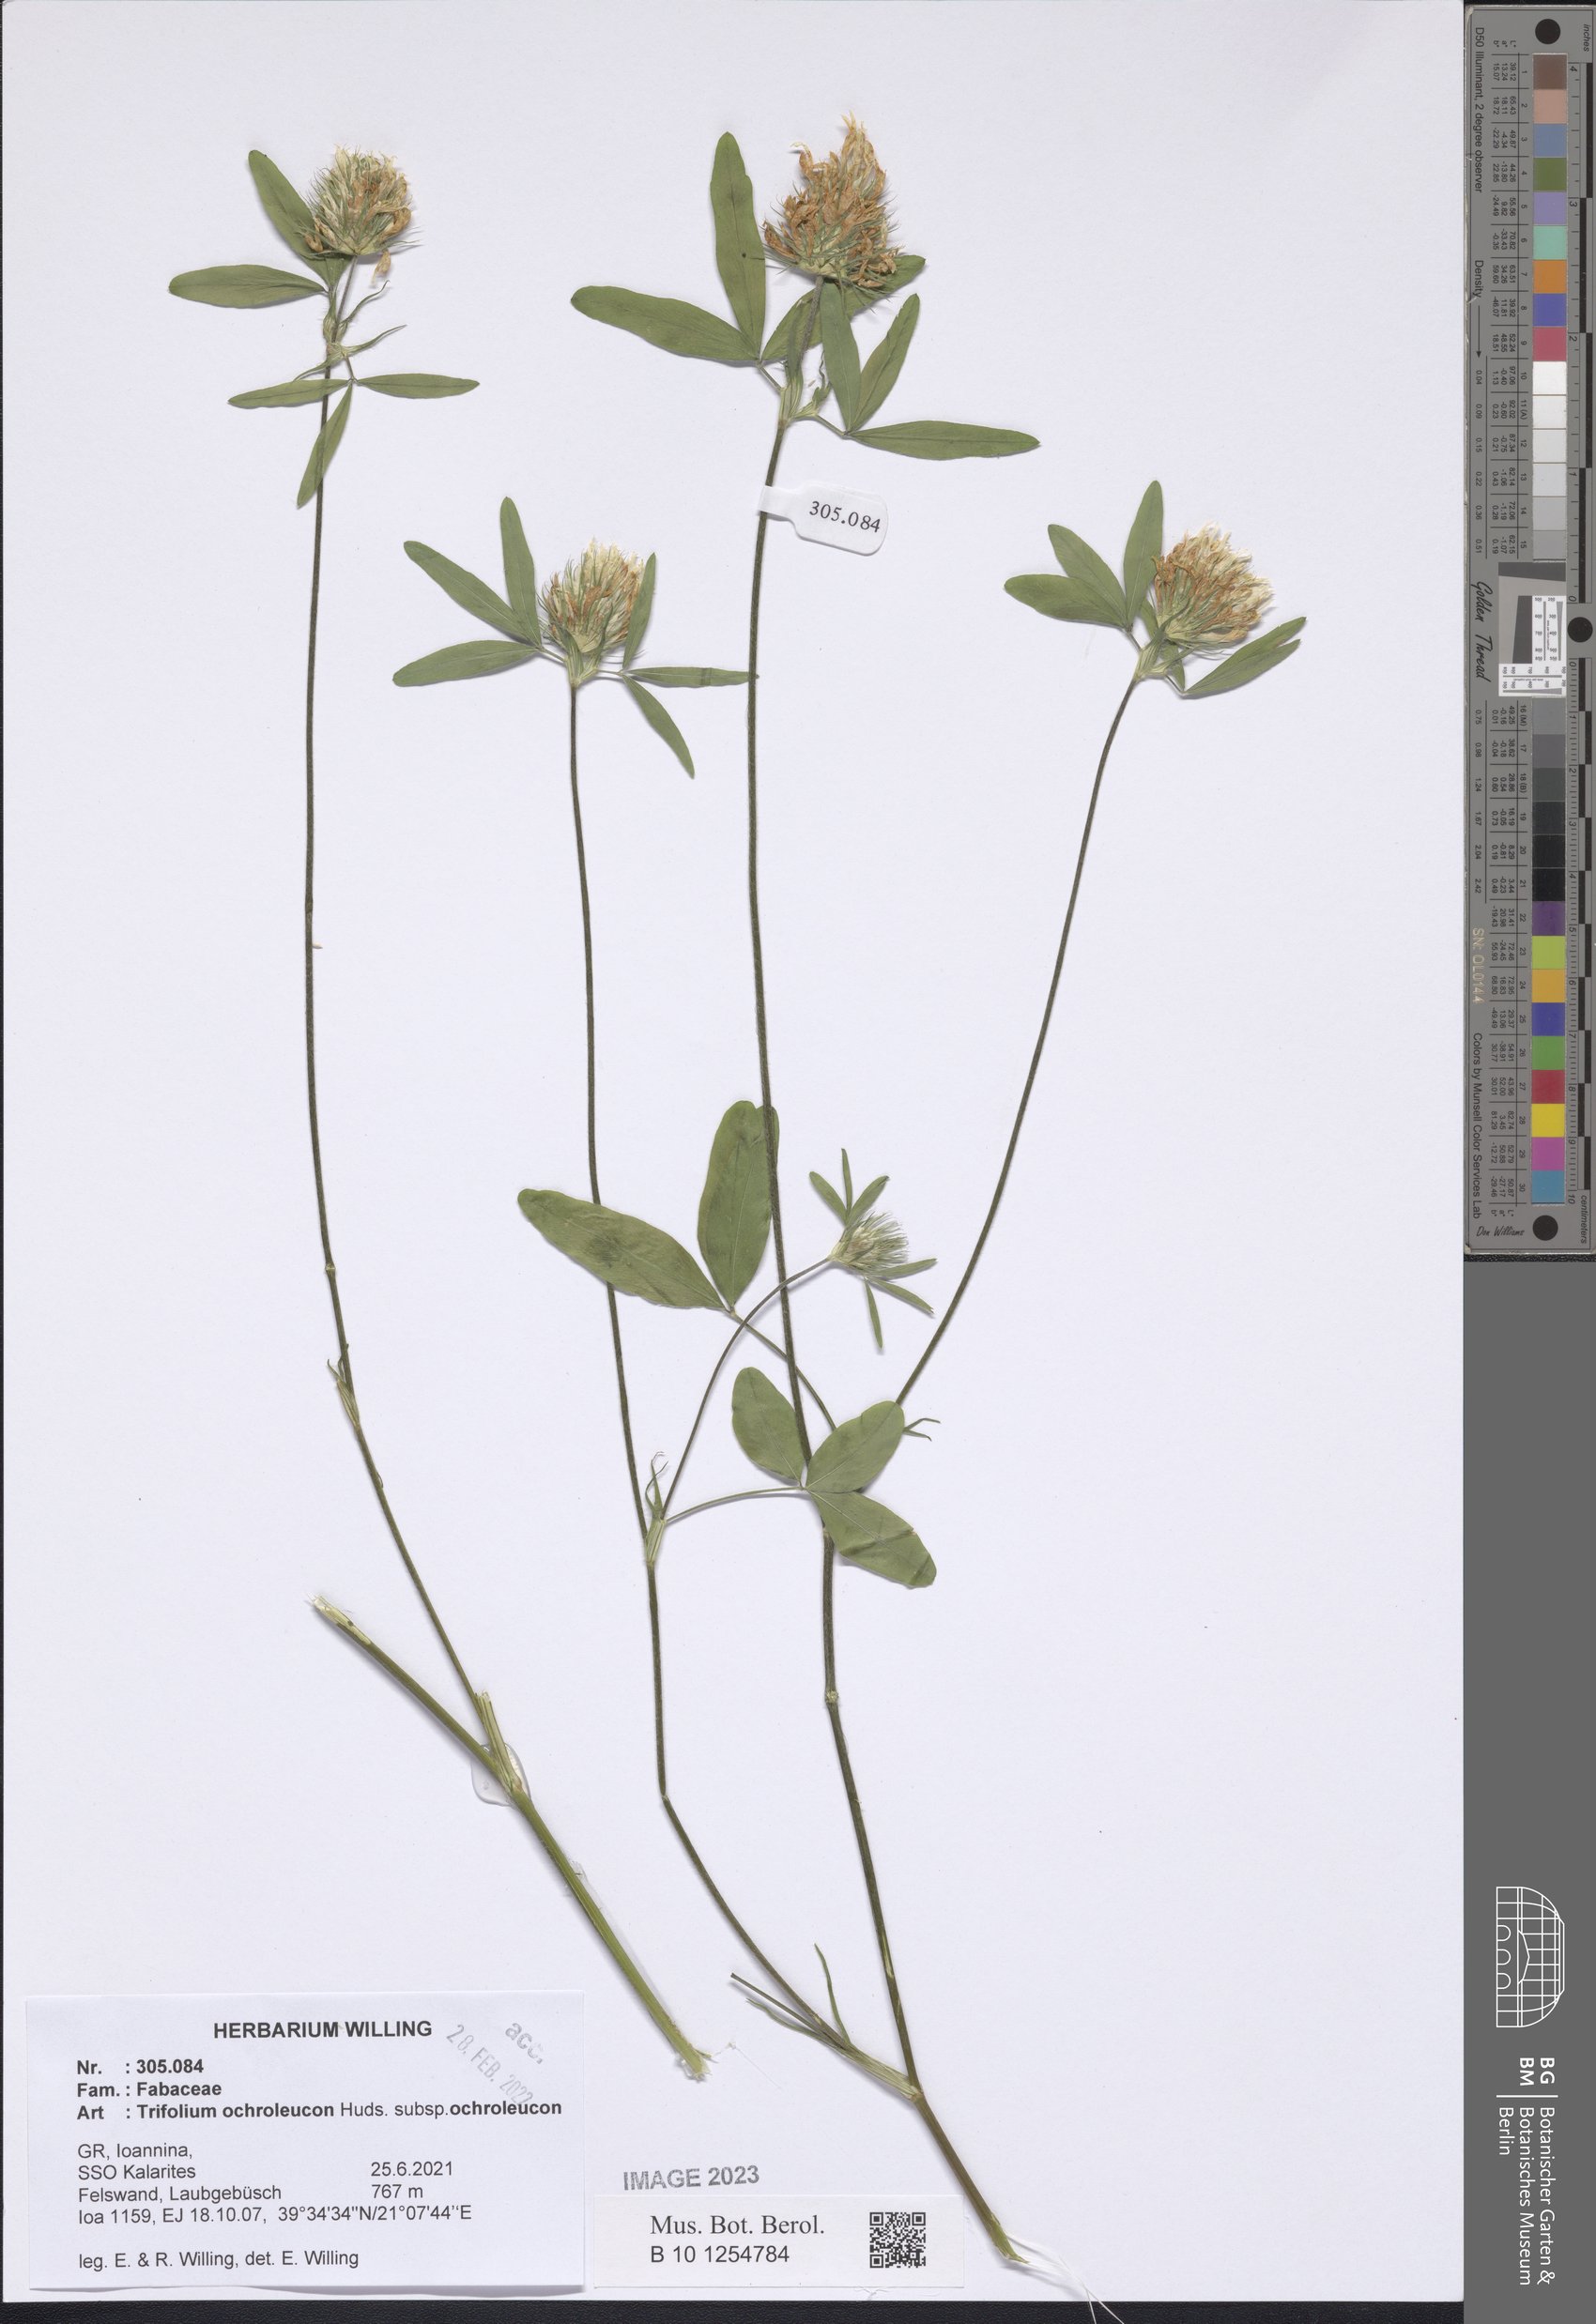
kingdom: Plantae
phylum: Tracheophyta
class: Magnoliopsida
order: Fabales
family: Fabaceae
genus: Trifolium
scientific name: Trifolium ochroleucon
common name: Sulphur clover
